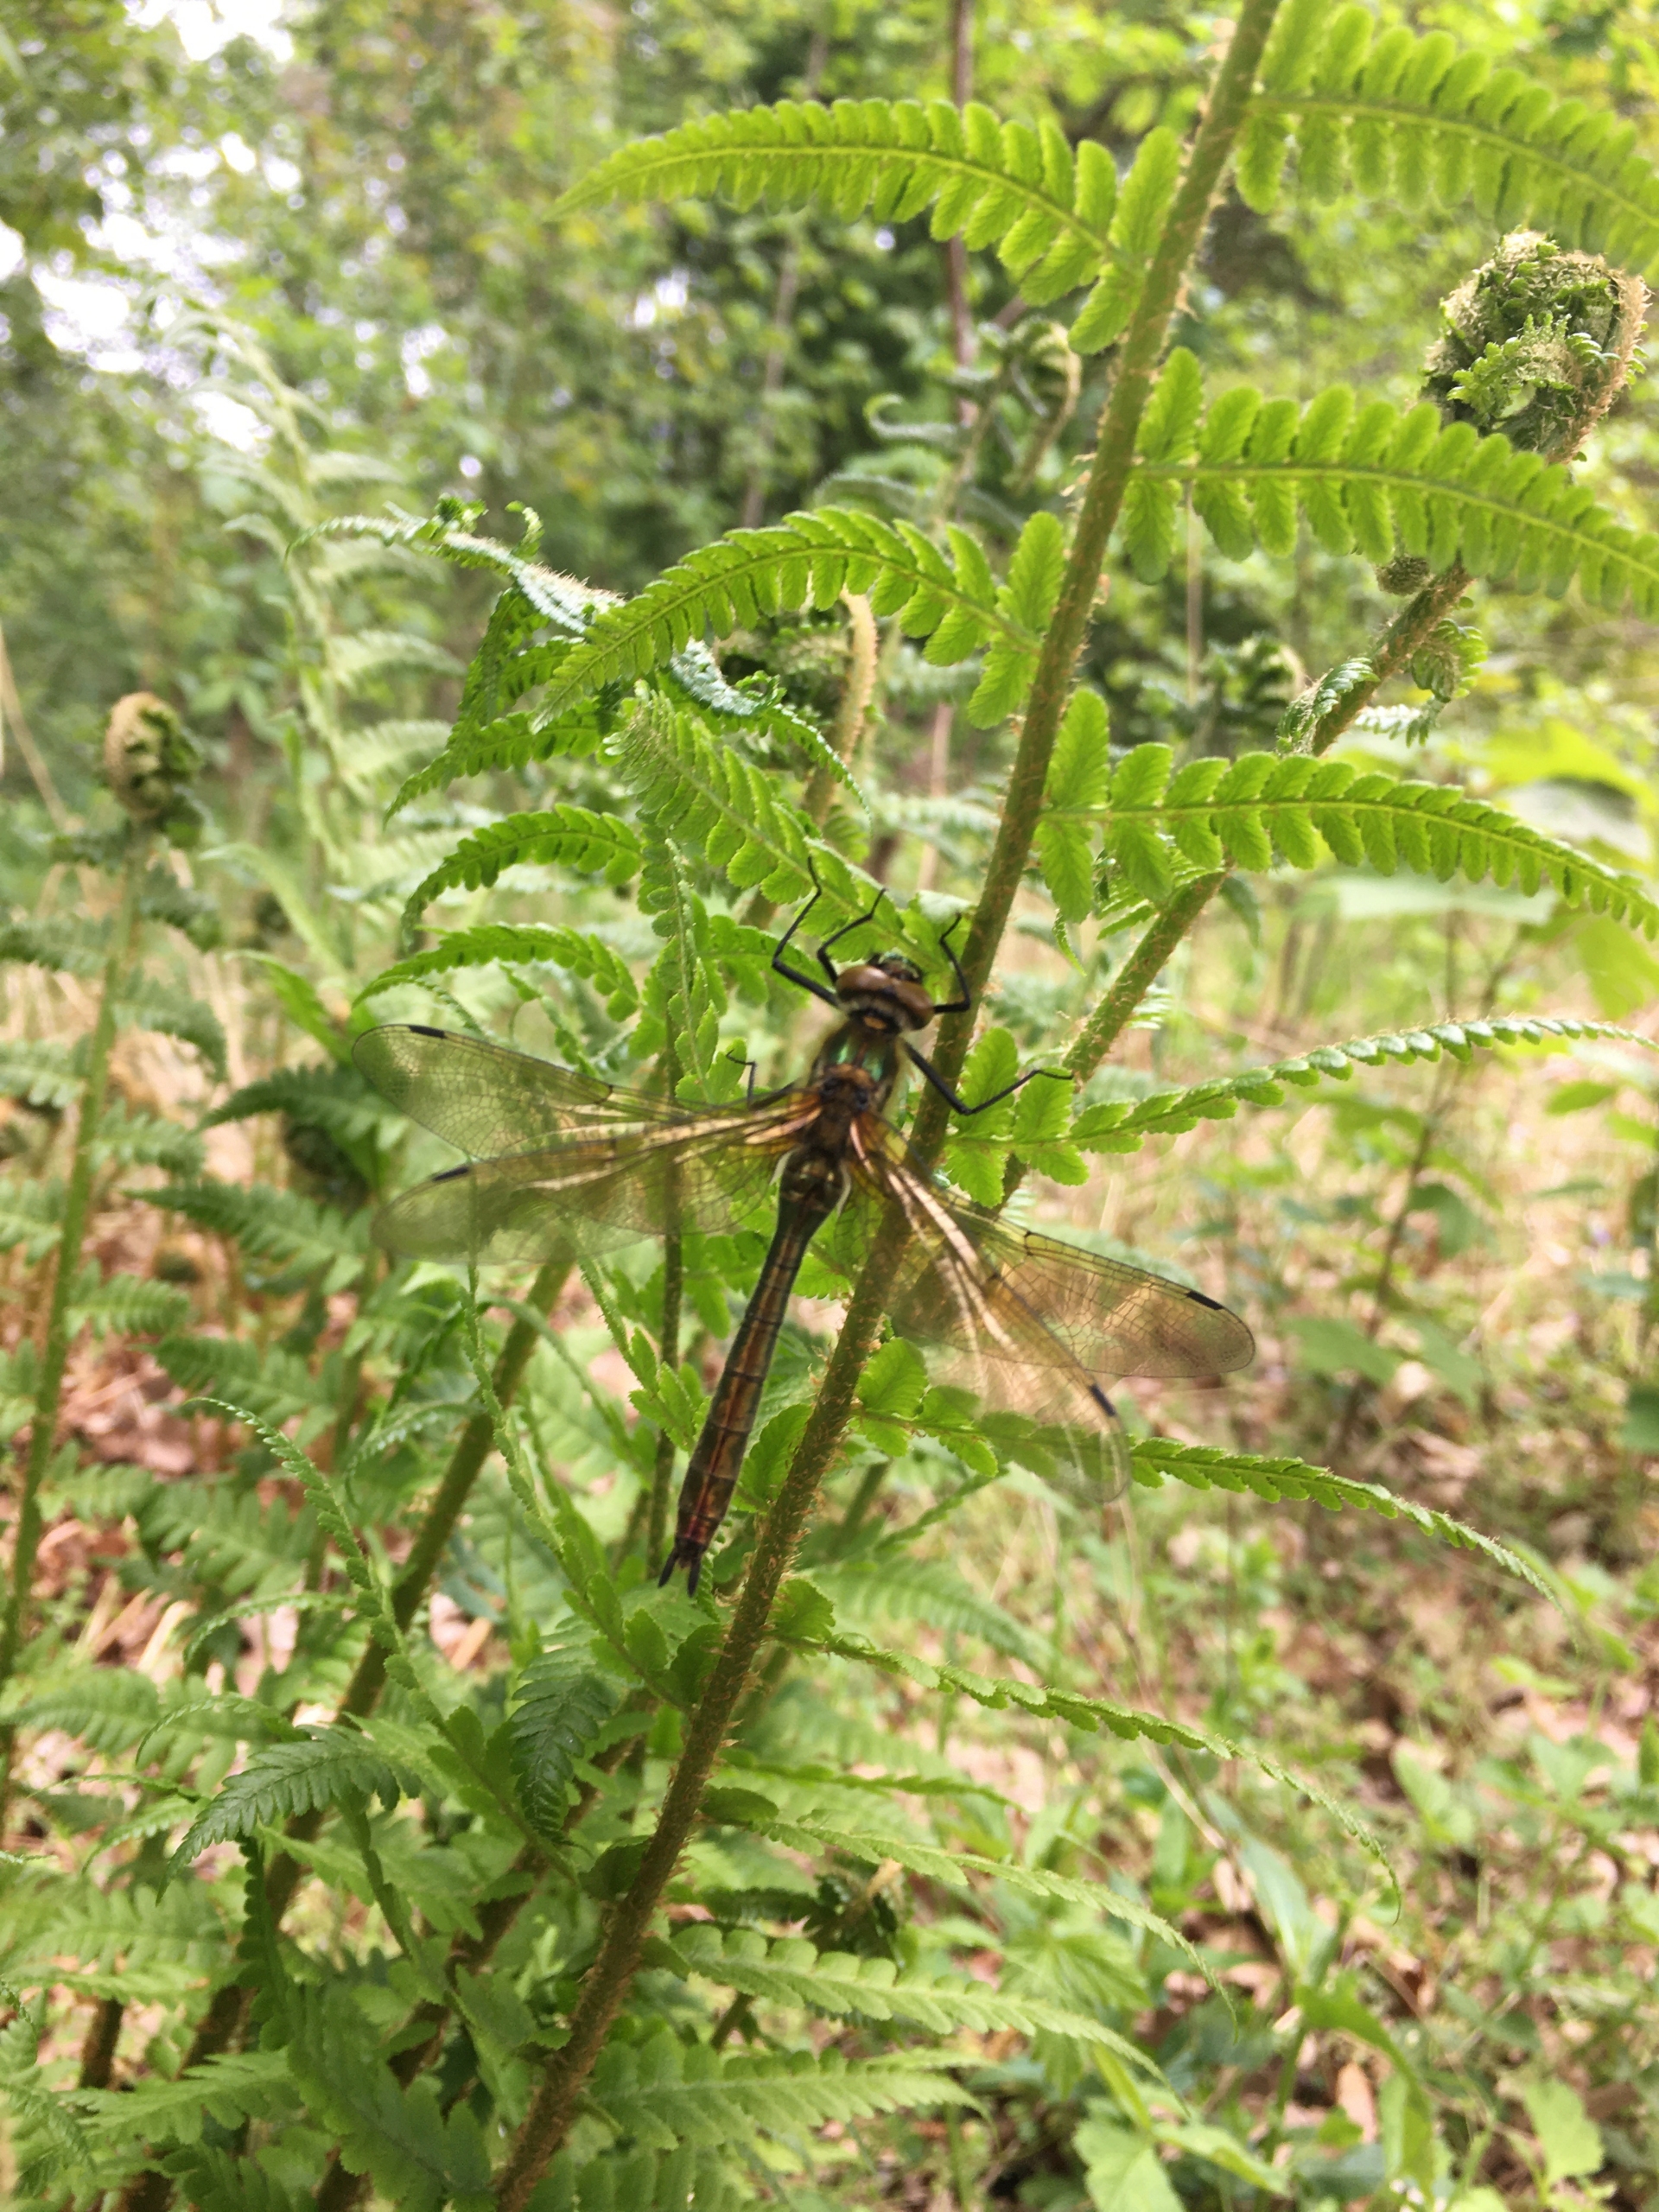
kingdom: Animalia
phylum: Arthropoda
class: Insecta
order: Odonata
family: Corduliidae
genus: Cordulia
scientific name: Cordulia aenea
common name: Grøn smaragdlibel
